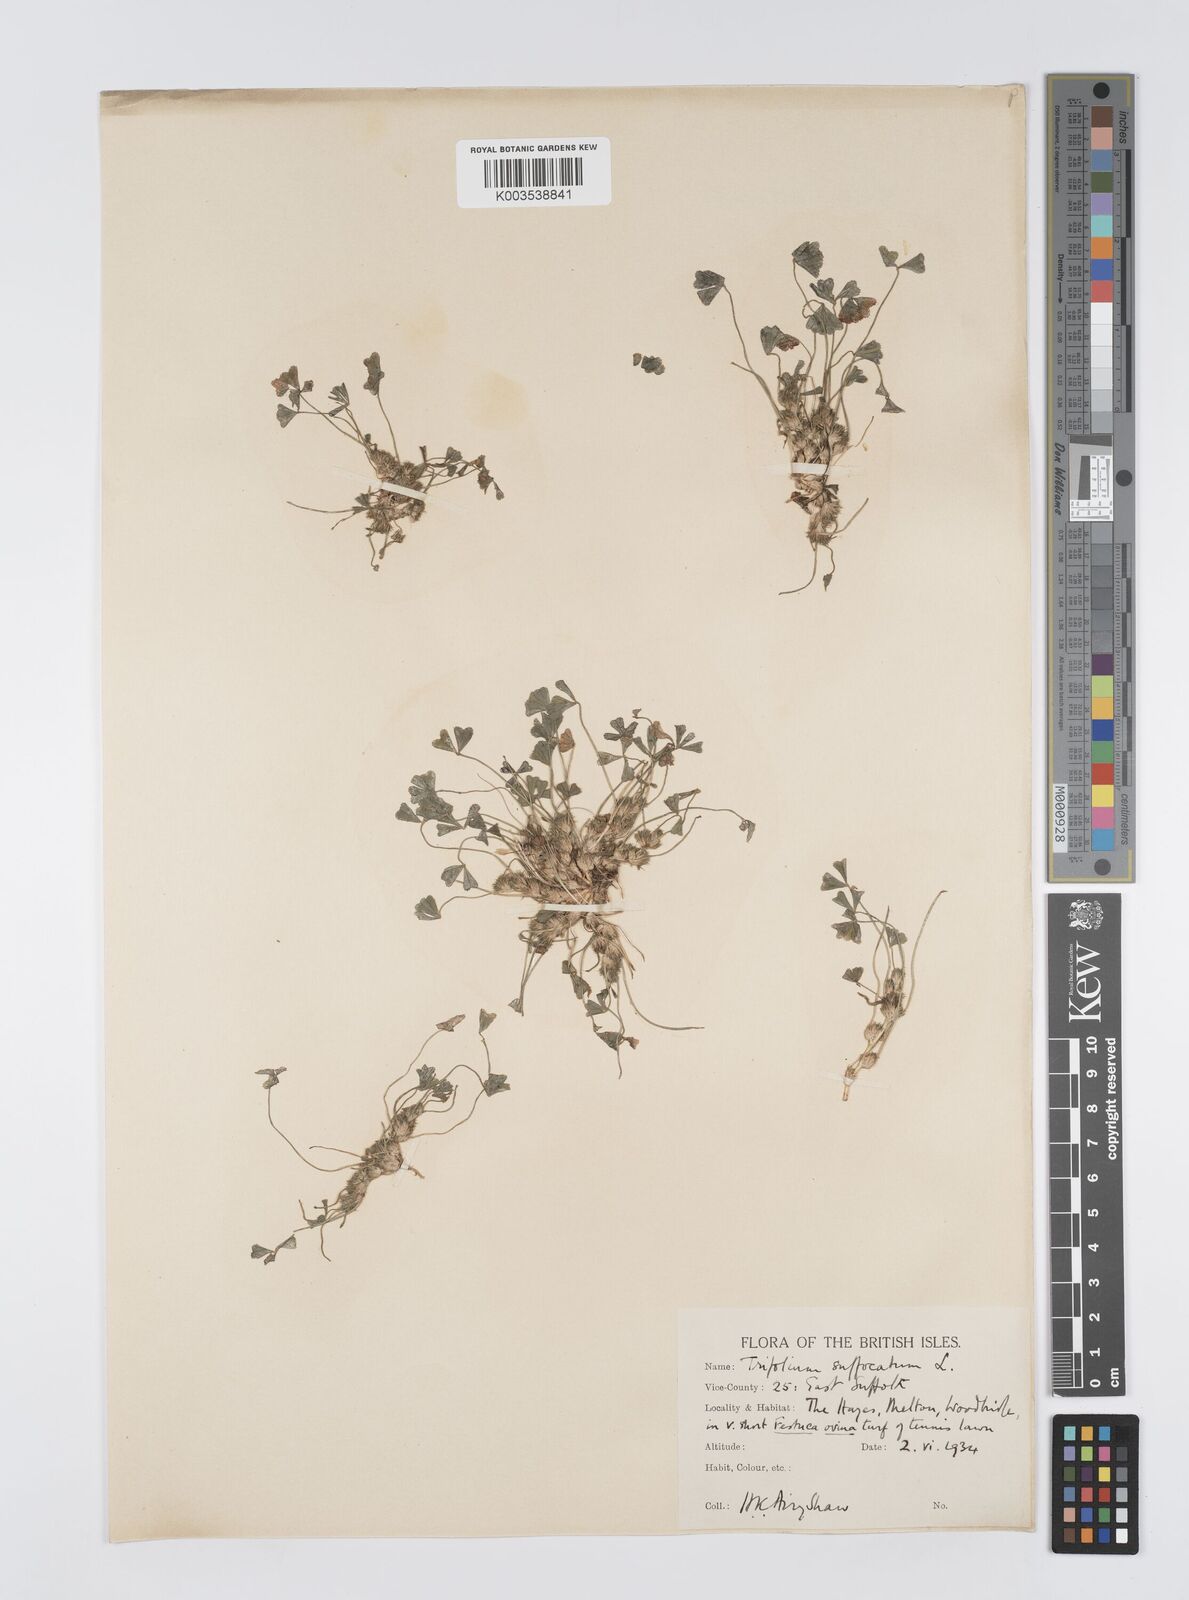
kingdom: Plantae
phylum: Tracheophyta
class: Magnoliopsida
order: Fabales
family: Fabaceae
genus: Trifolium
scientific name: Trifolium suffocatum
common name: Suffocated clover
